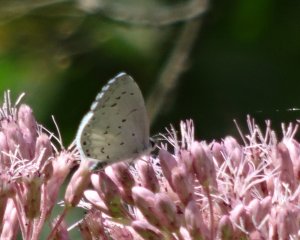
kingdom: Animalia
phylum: Arthropoda
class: Insecta
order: Lepidoptera
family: Lycaenidae
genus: Cyaniris
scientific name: Cyaniris neglecta
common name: Summer Azure
